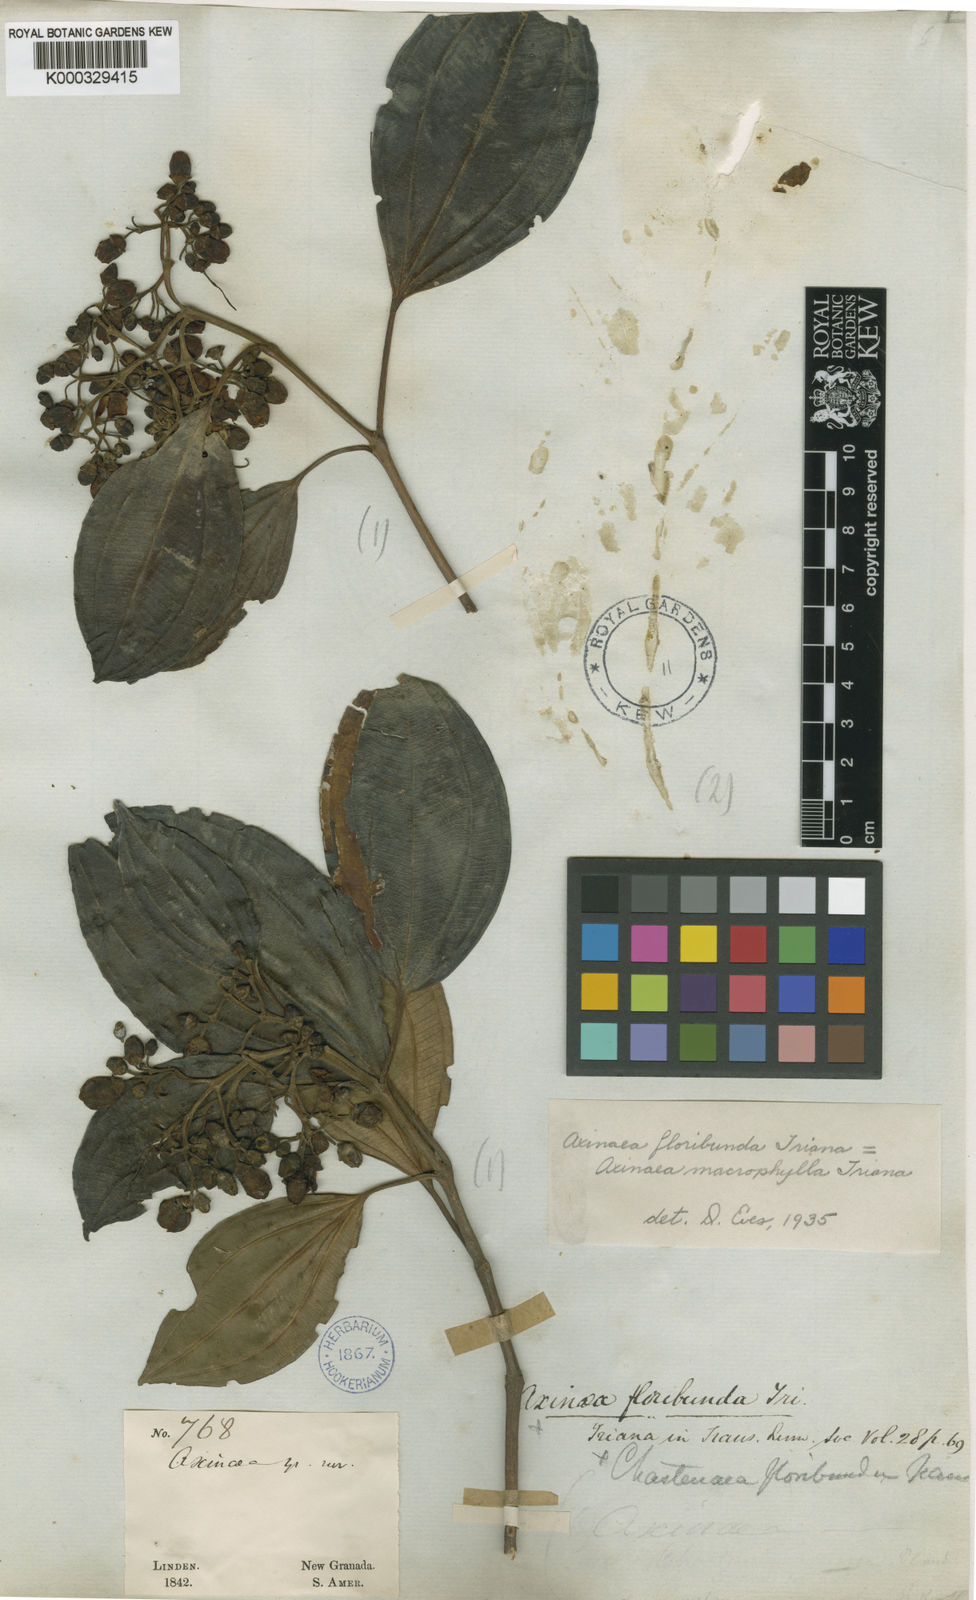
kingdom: Plantae
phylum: Tracheophyta
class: Magnoliopsida
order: Myrtales
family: Melastomataceae
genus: Axinaea
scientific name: Axinaea macrophylla
